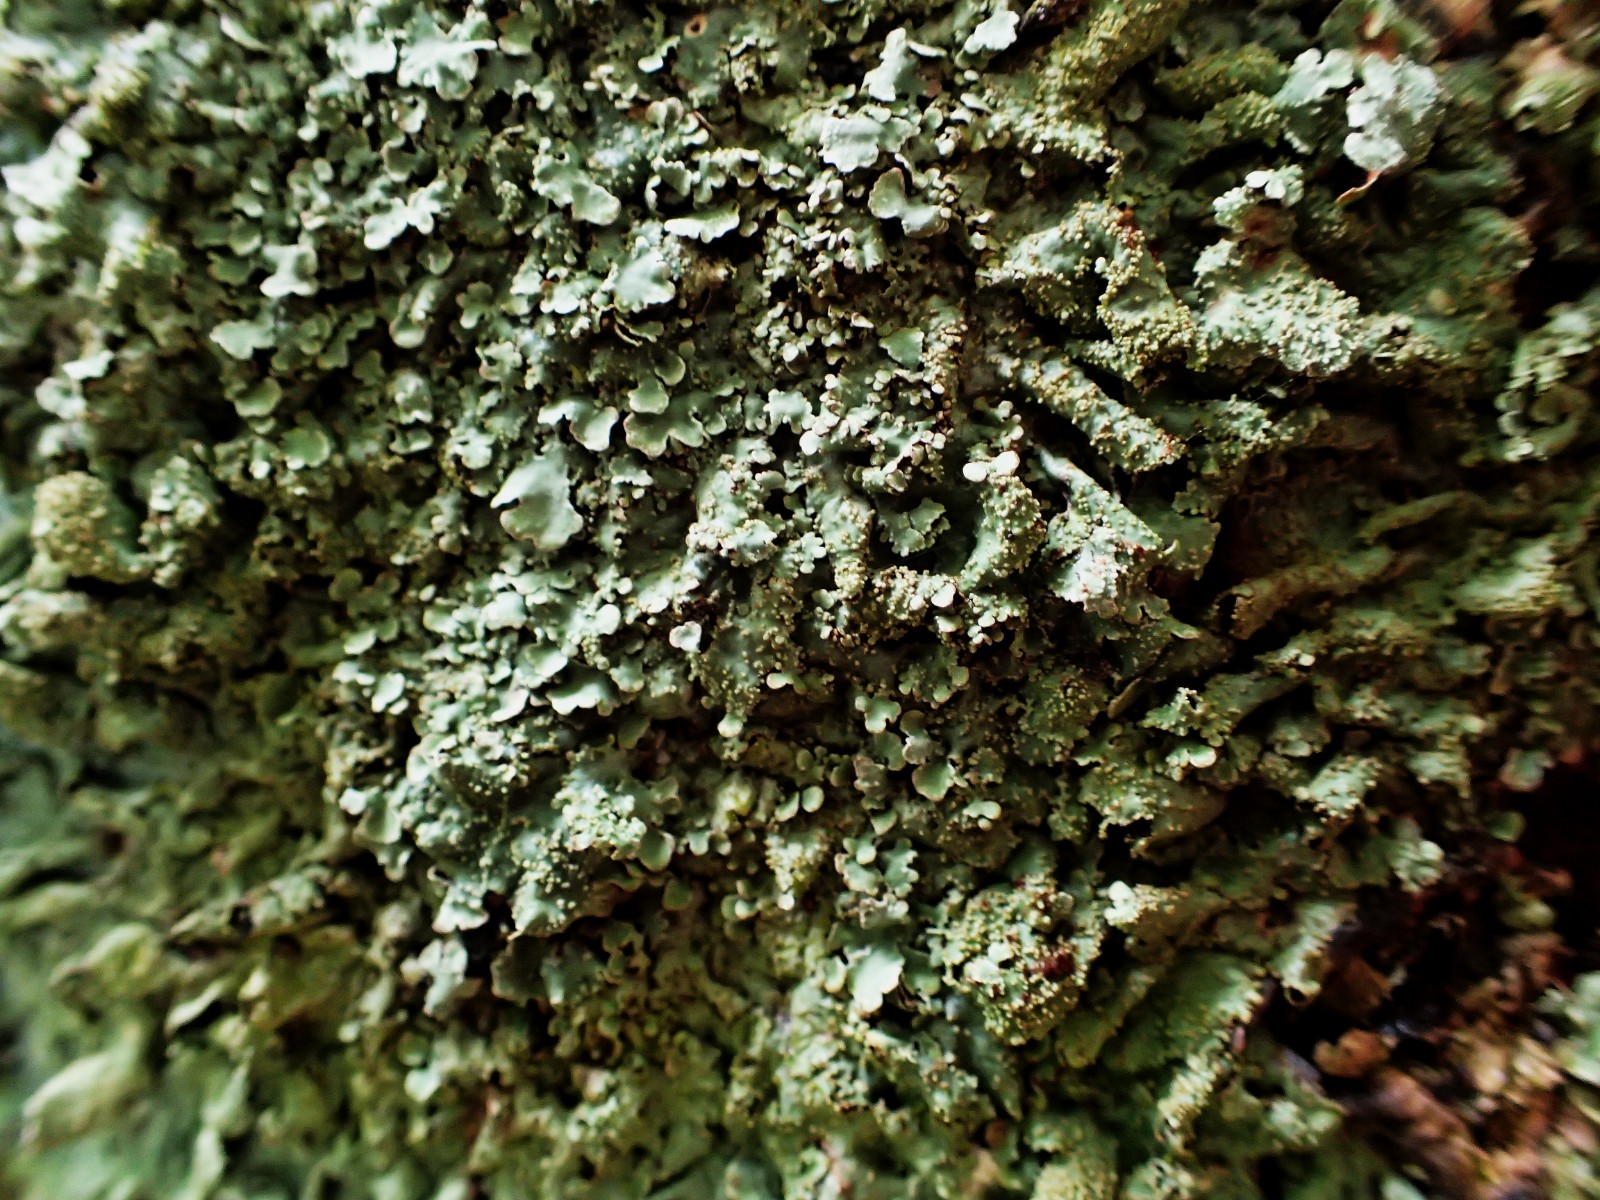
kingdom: Fungi
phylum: Ascomycota
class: Lecanoromycetes
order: Lecanorales
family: Parmeliaceae
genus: Parmelia
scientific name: Parmelia ernstiae
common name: rimstift-skållav
